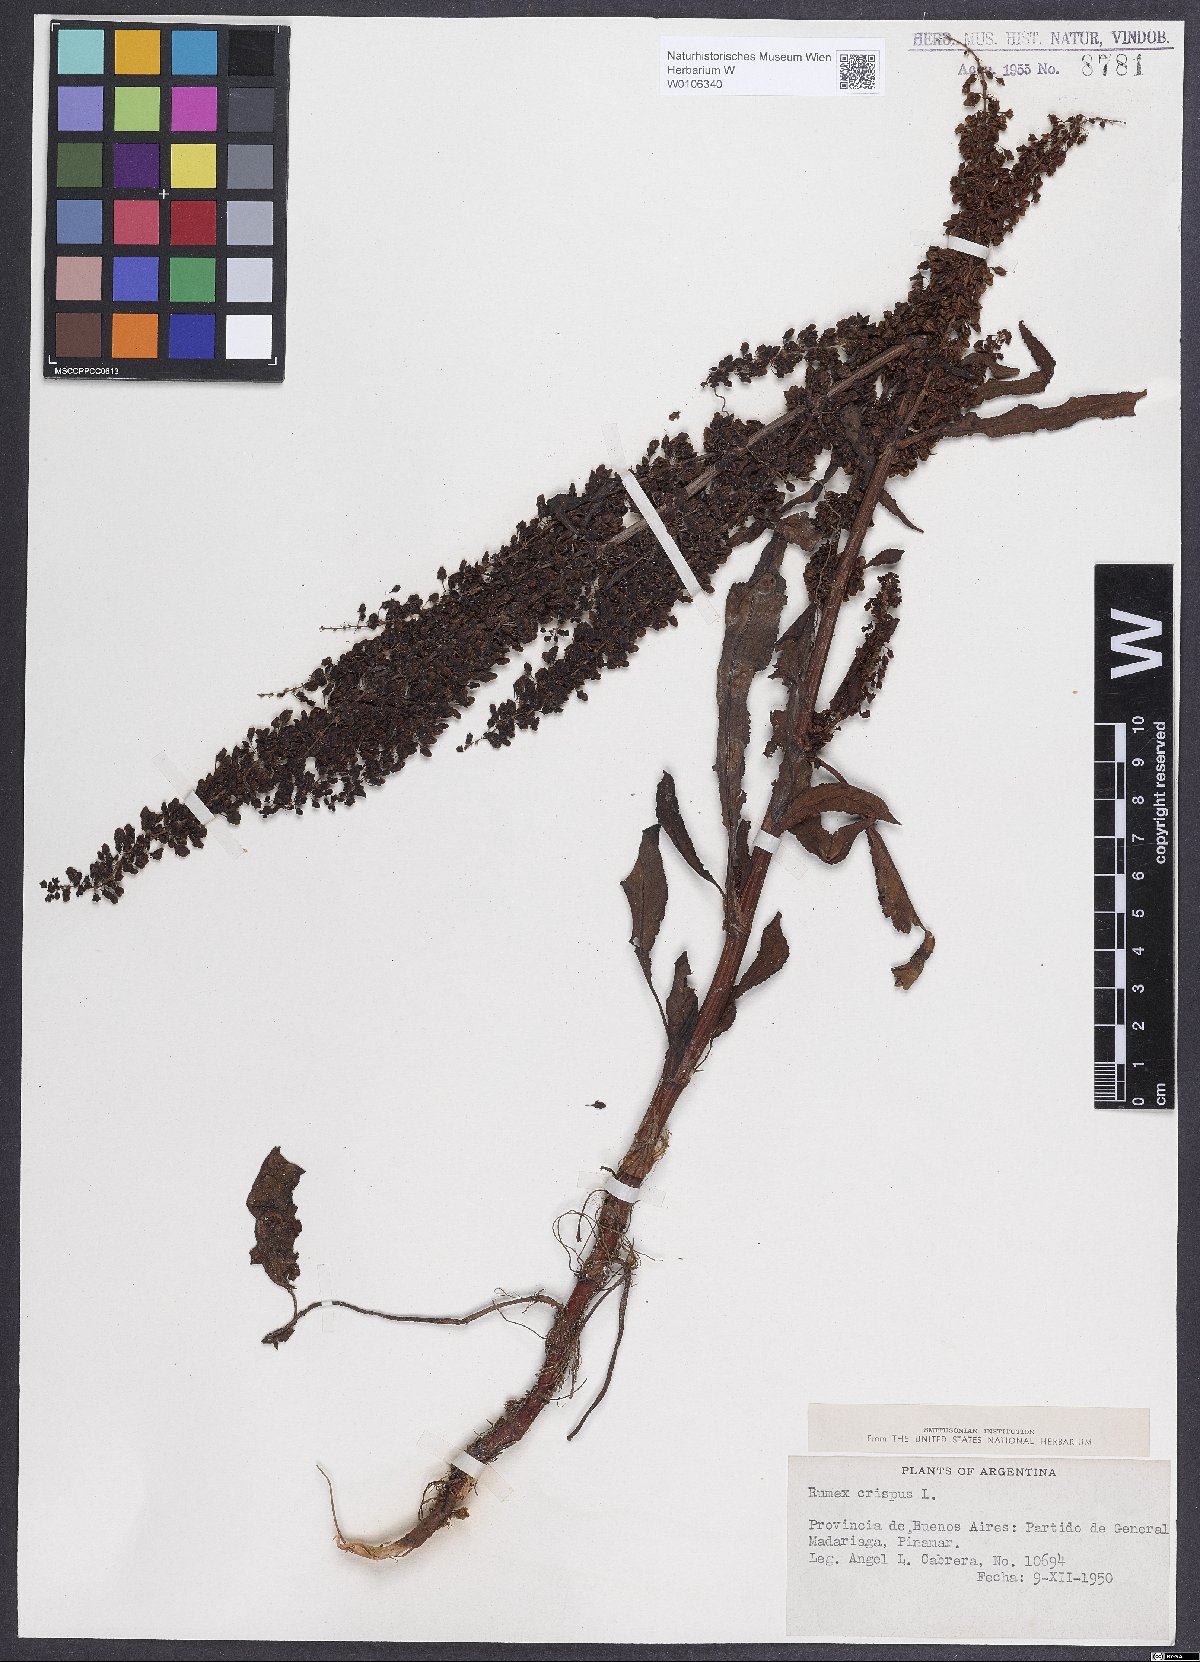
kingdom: Plantae
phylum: Tracheophyta
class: Magnoliopsida
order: Caryophyllales
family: Polygonaceae
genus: Rumex
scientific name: Rumex crispus
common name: Curled dock
